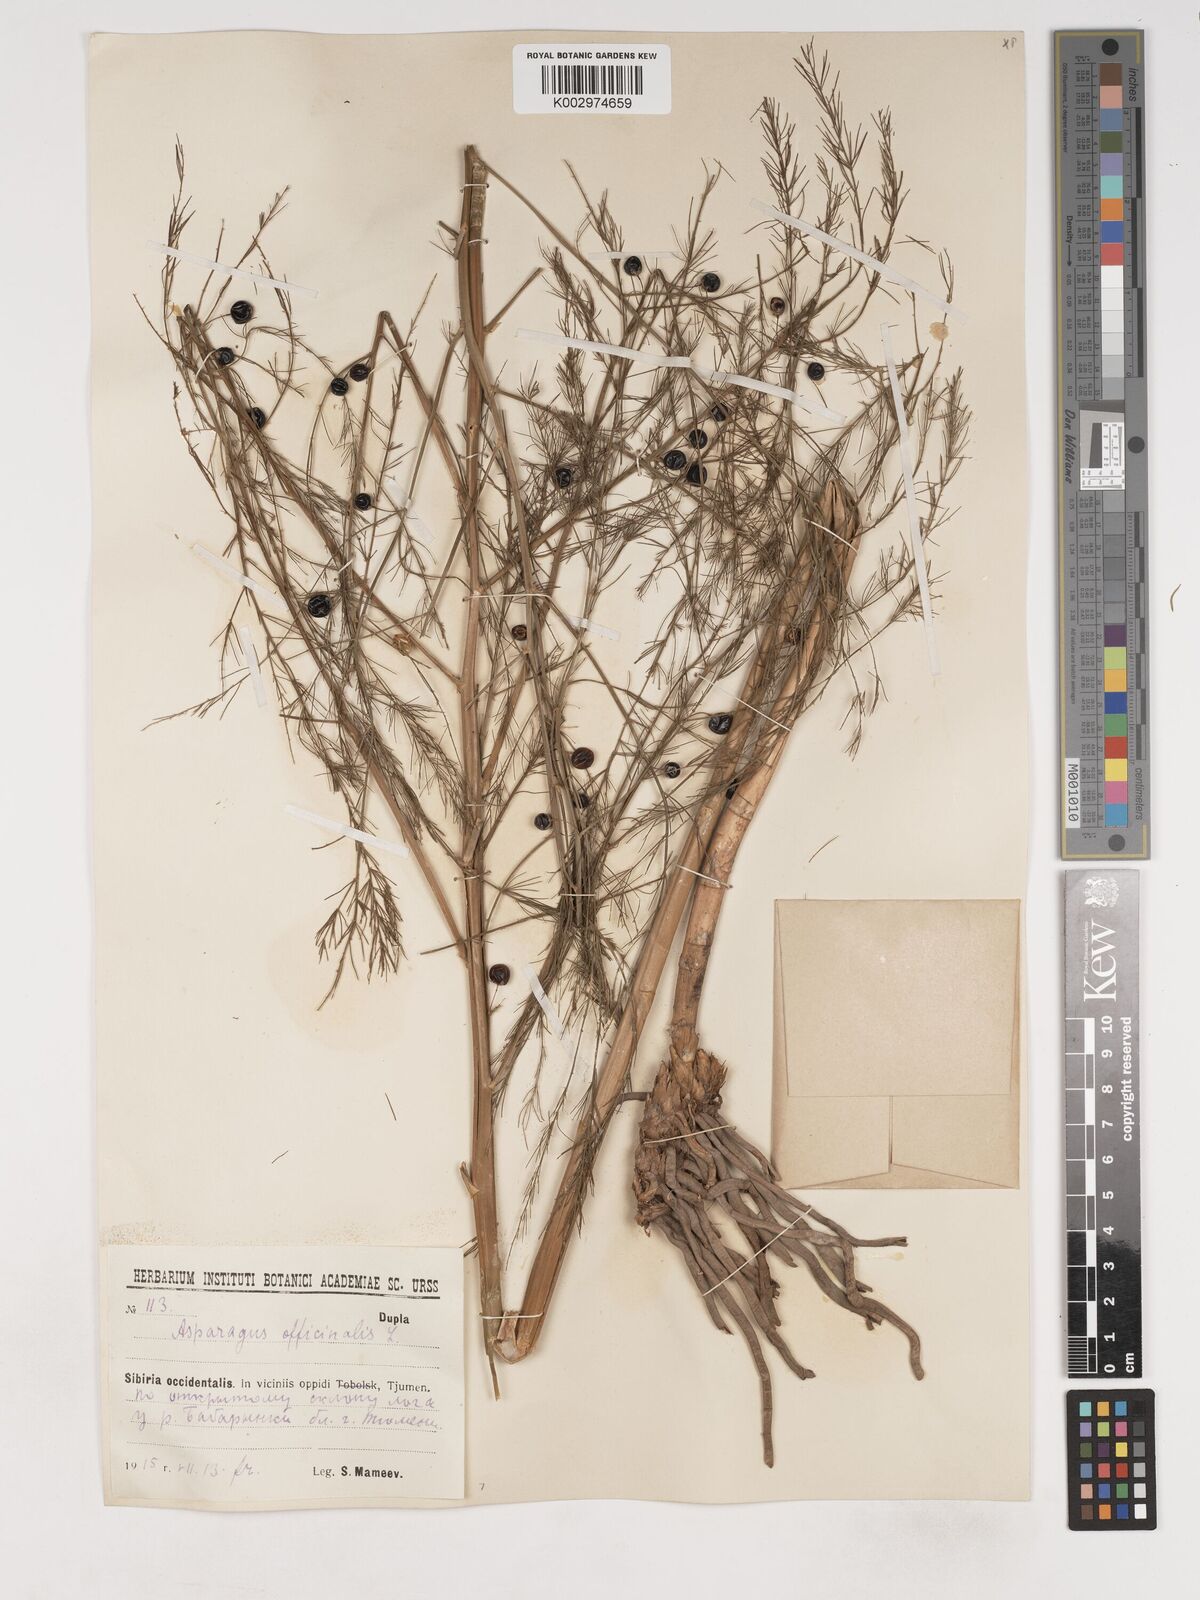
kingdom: Plantae
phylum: Tracheophyta
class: Liliopsida
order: Asparagales
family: Asparagaceae
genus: Asparagus
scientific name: Asparagus officinalis
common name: Garden asparagus
